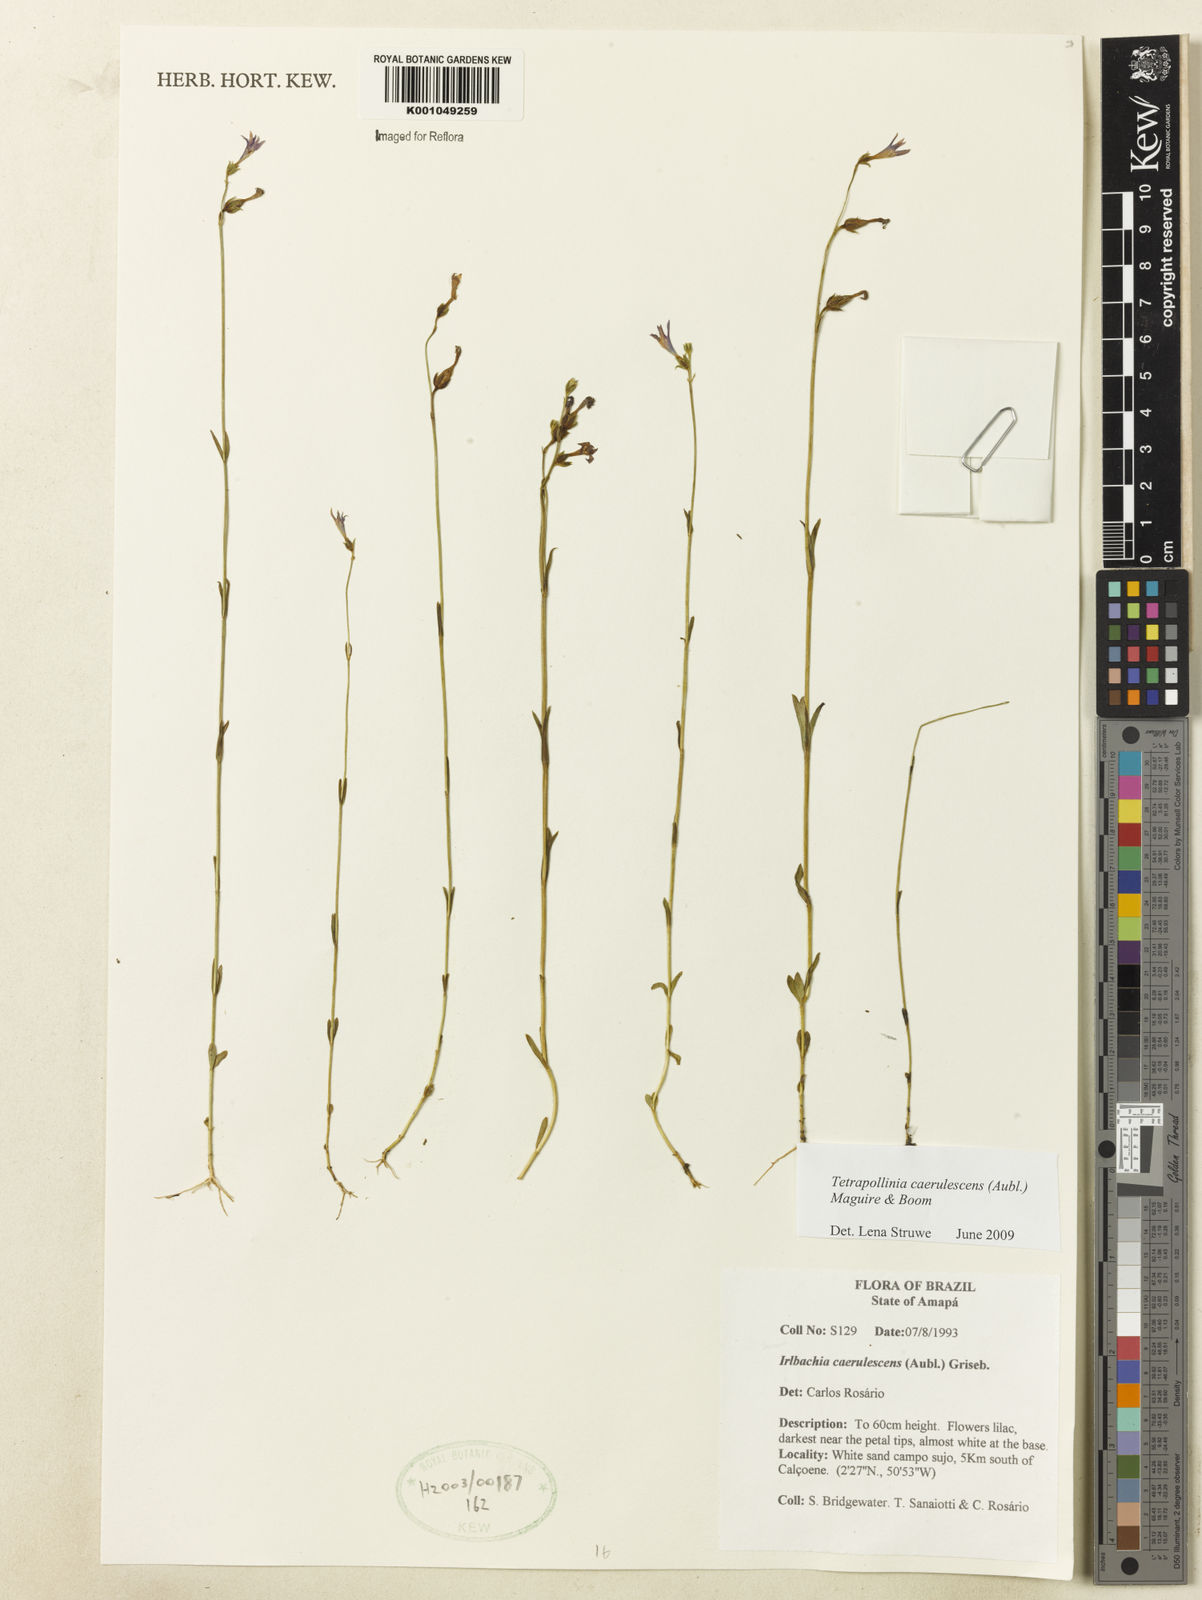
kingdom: Plantae
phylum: Tracheophyta
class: Magnoliopsida
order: Gentianales
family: Gentianaceae
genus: Tetrapollinia
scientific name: Tetrapollinia caerulescens
